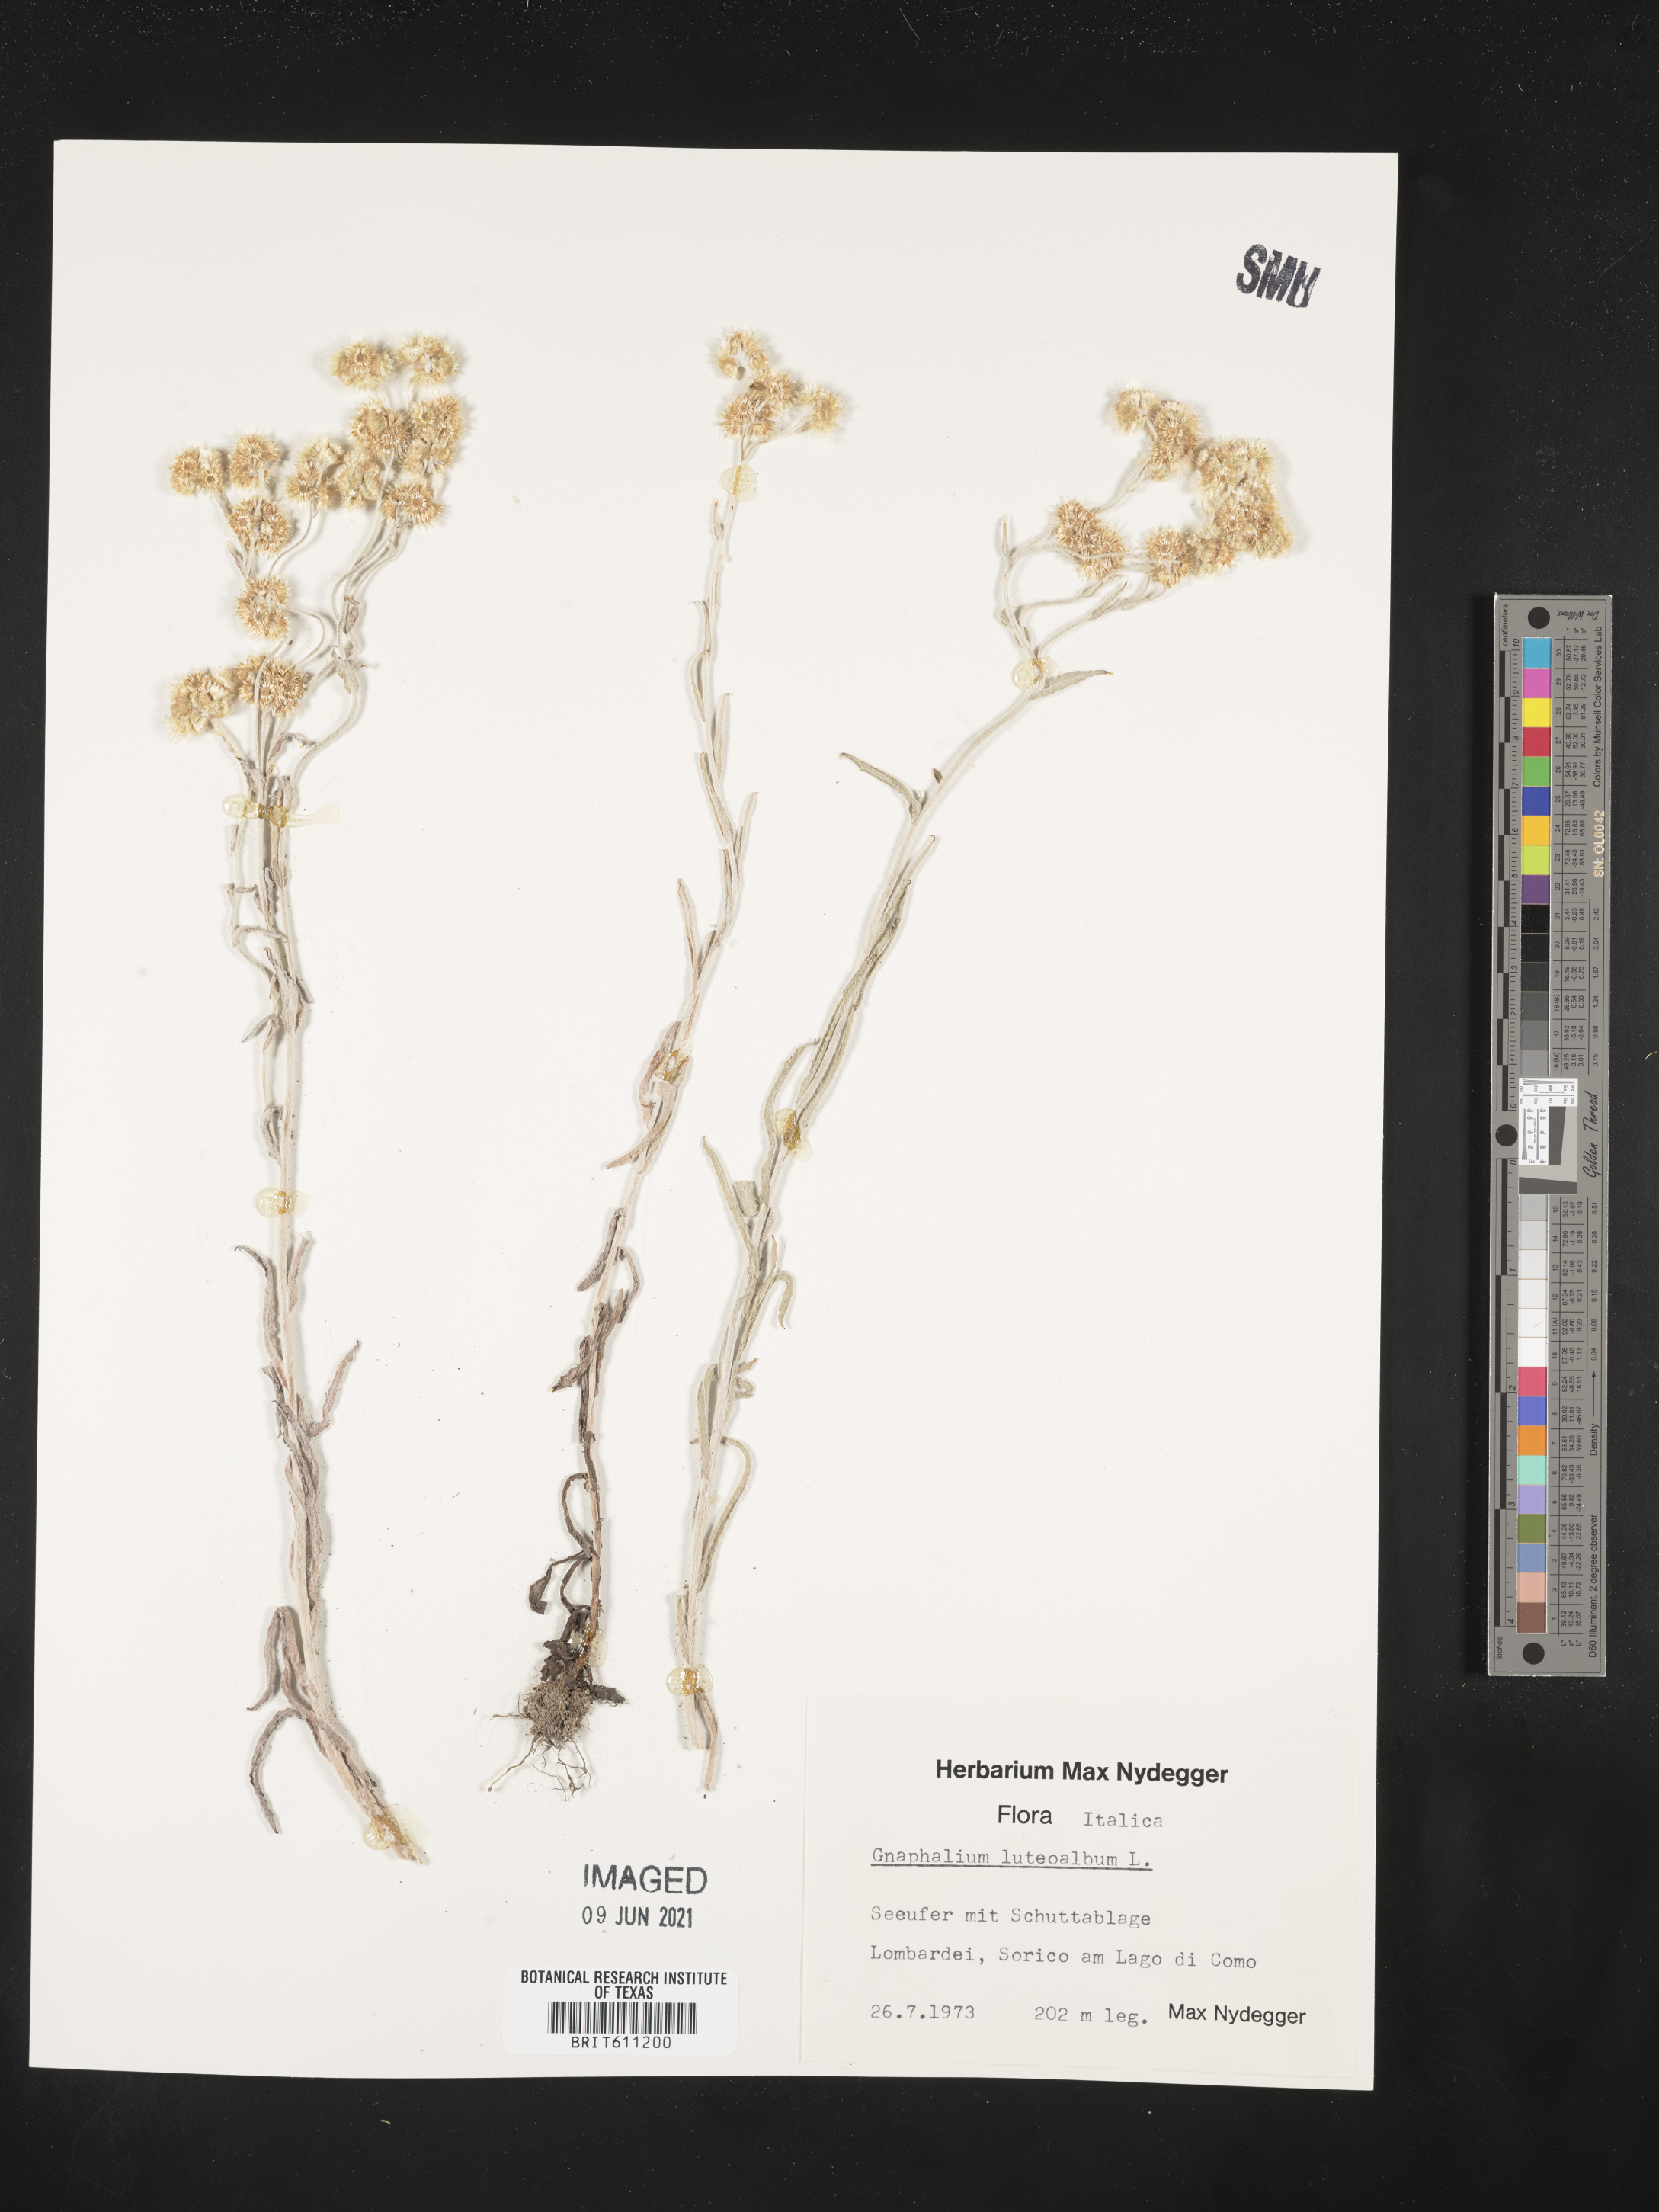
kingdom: Plantae
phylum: Tracheophyta
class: Magnoliopsida
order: Asterales
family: Asteraceae
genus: Helichrysum
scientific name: Helichrysum luteoalbum
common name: Daisy
